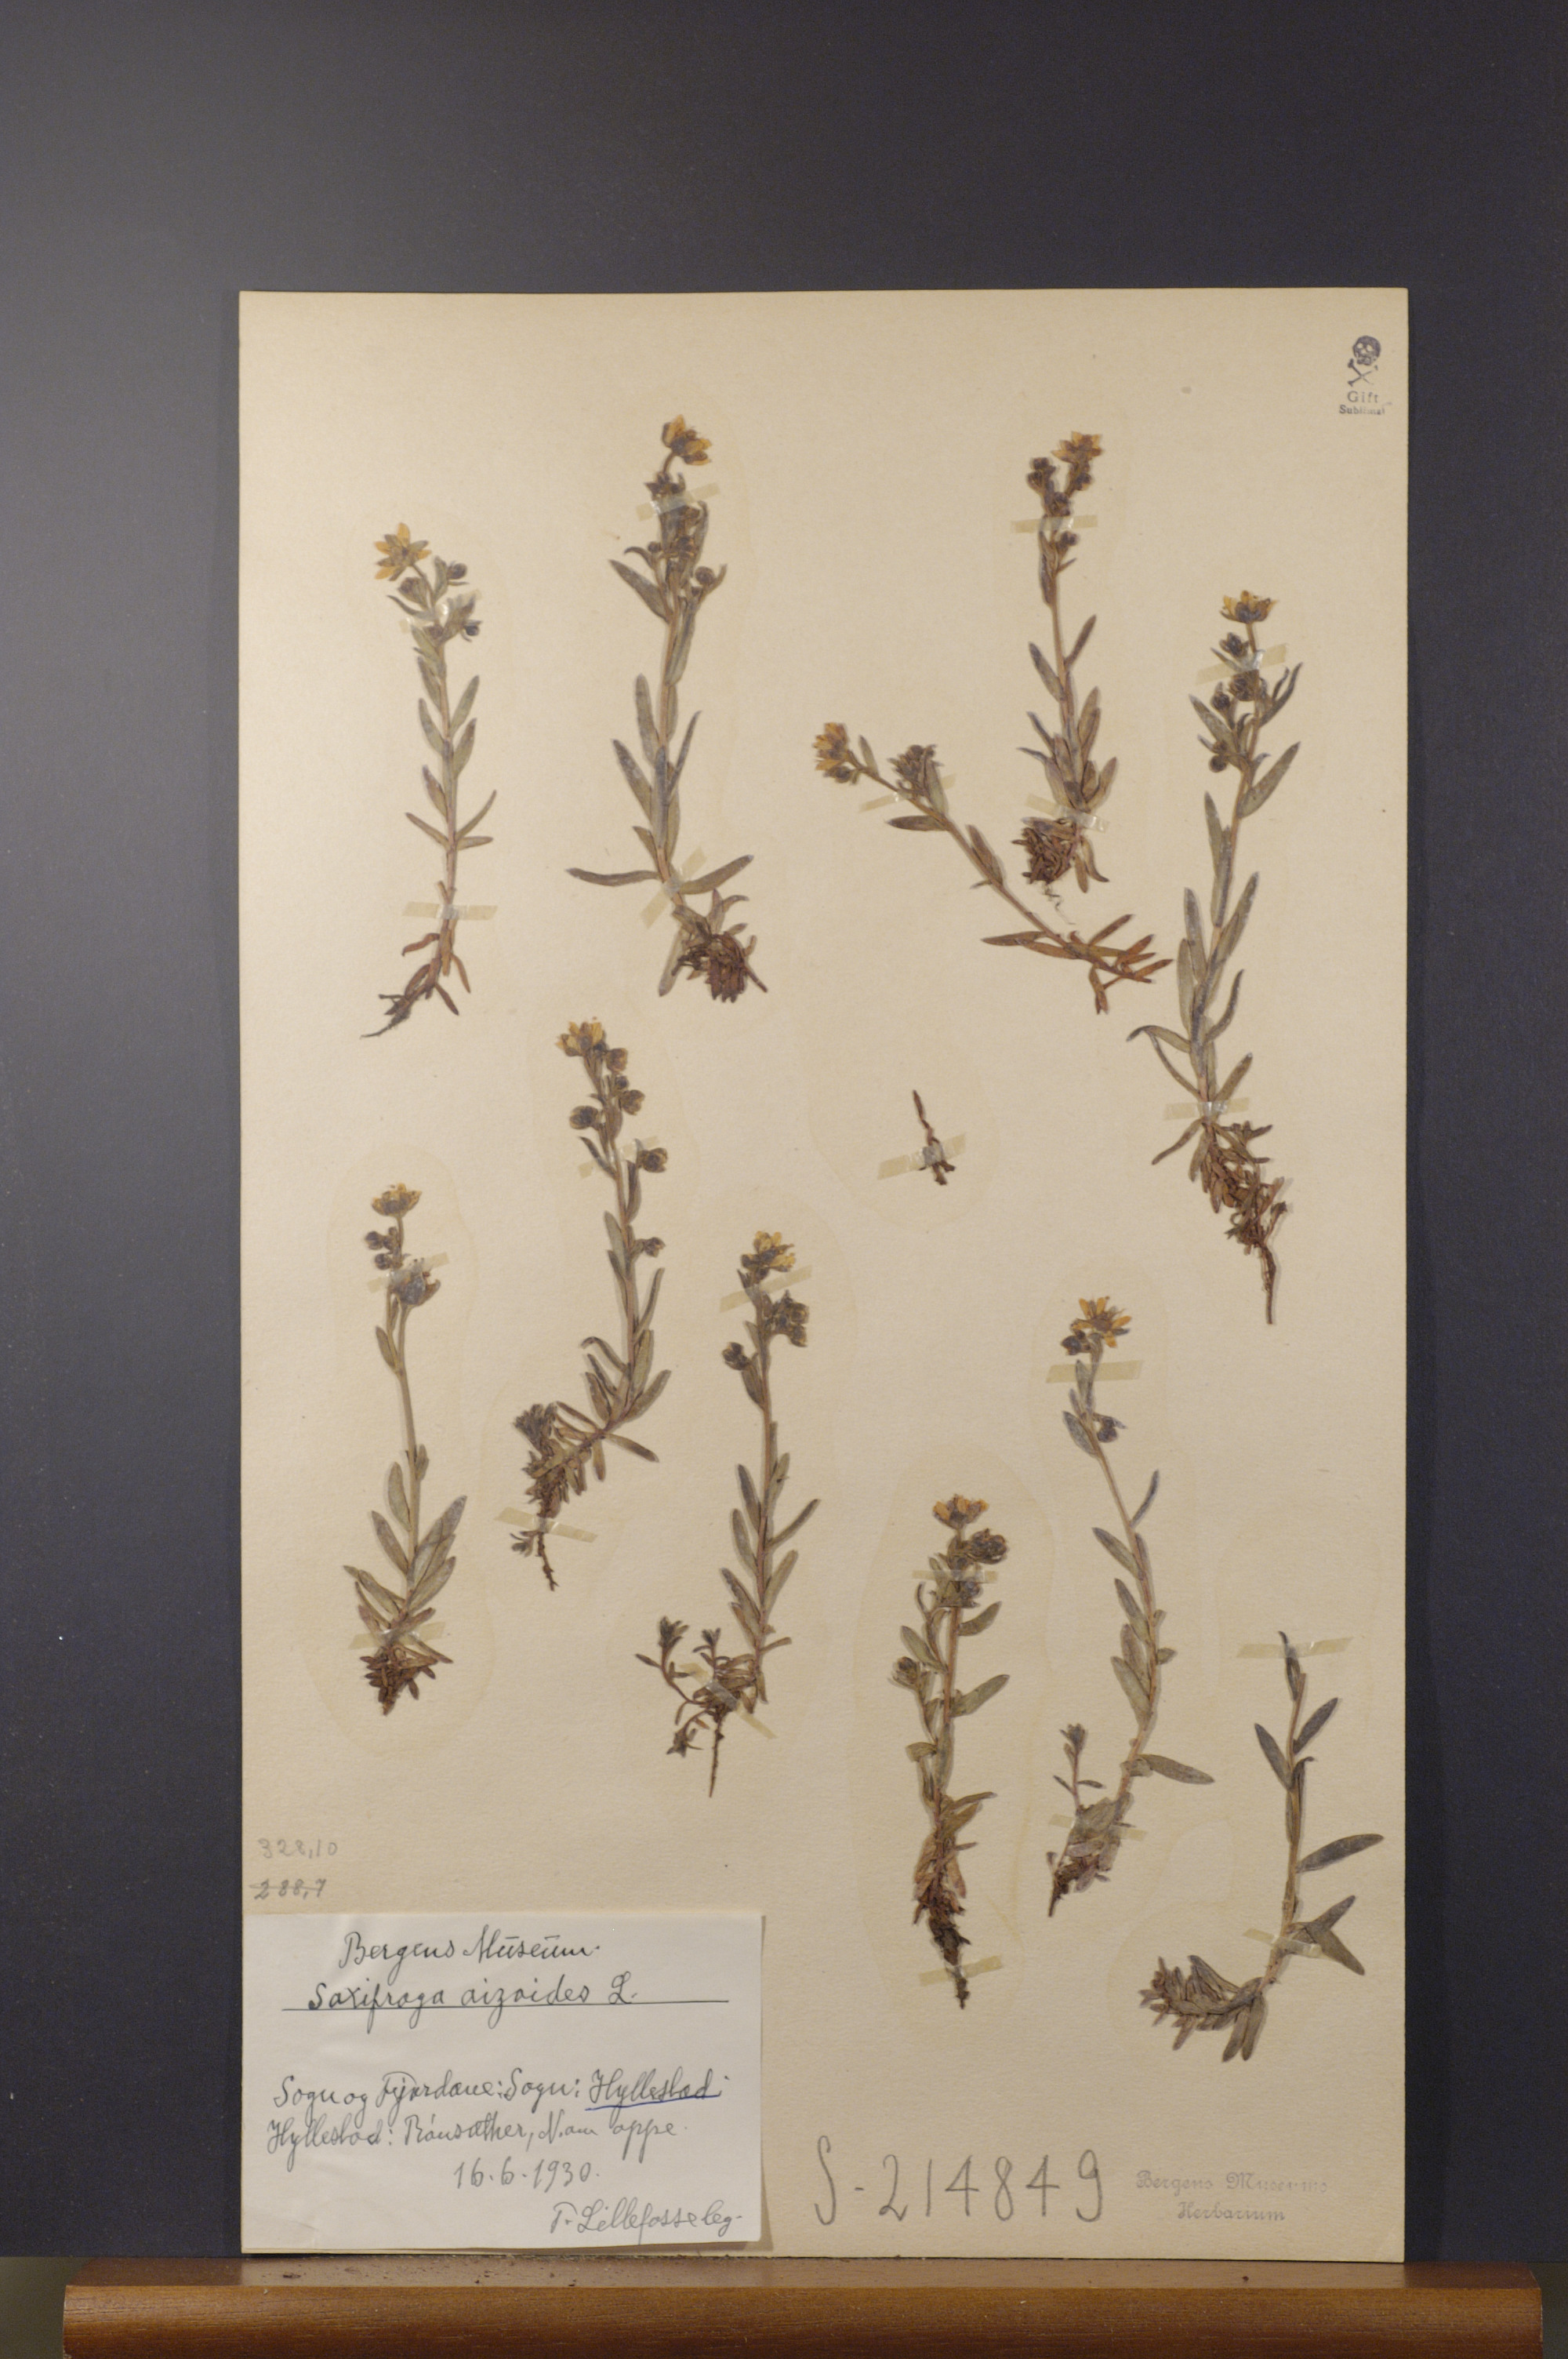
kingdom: Plantae
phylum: Tracheophyta
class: Magnoliopsida
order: Saxifragales
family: Saxifragaceae
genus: Saxifraga
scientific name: Saxifraga aizoides
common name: Yellow mountain saxifrage
